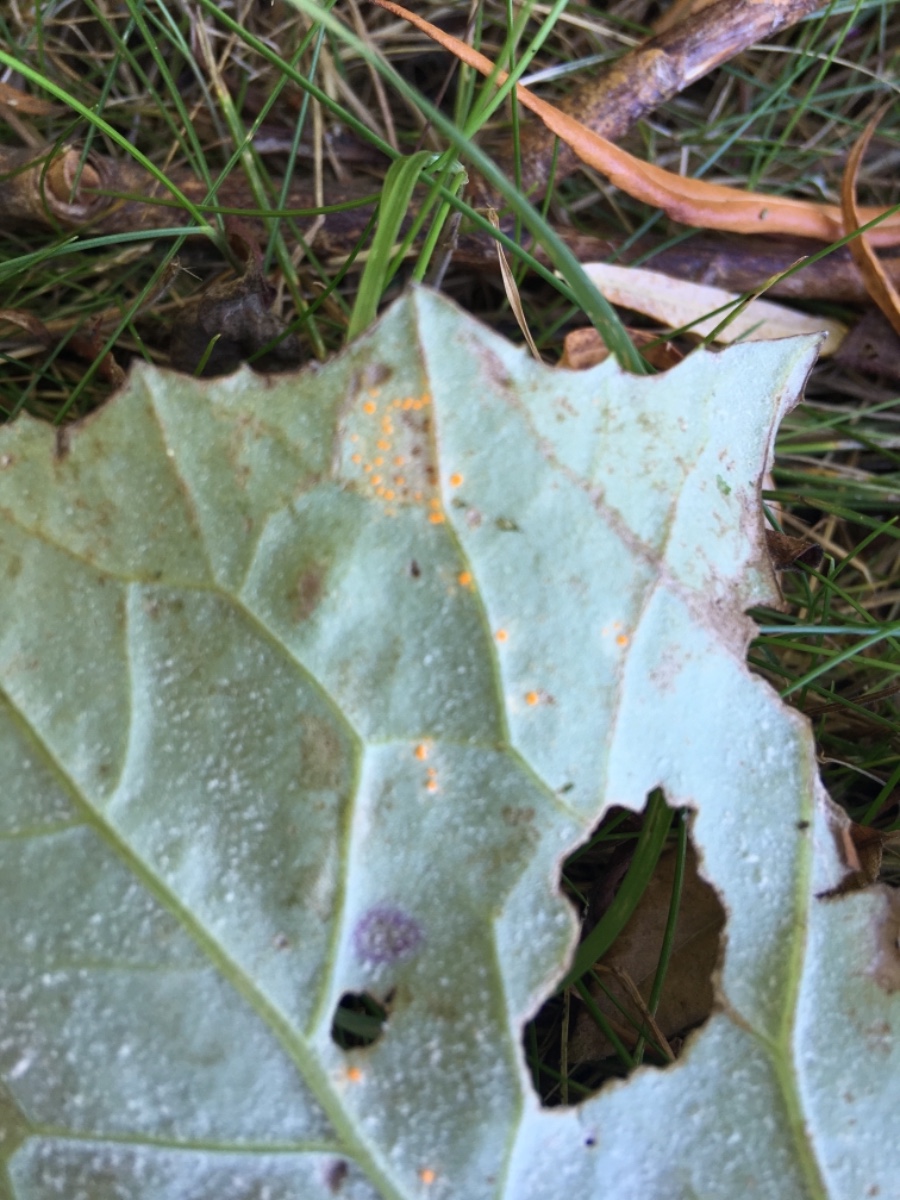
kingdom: Fungi
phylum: Basidiomycota
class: Pucciniomycetes
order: Pucciniales
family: Coleosporiaceae
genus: Coleosporium
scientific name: Coleosporium tussilaginis
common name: almindelig fyrrenålerust
